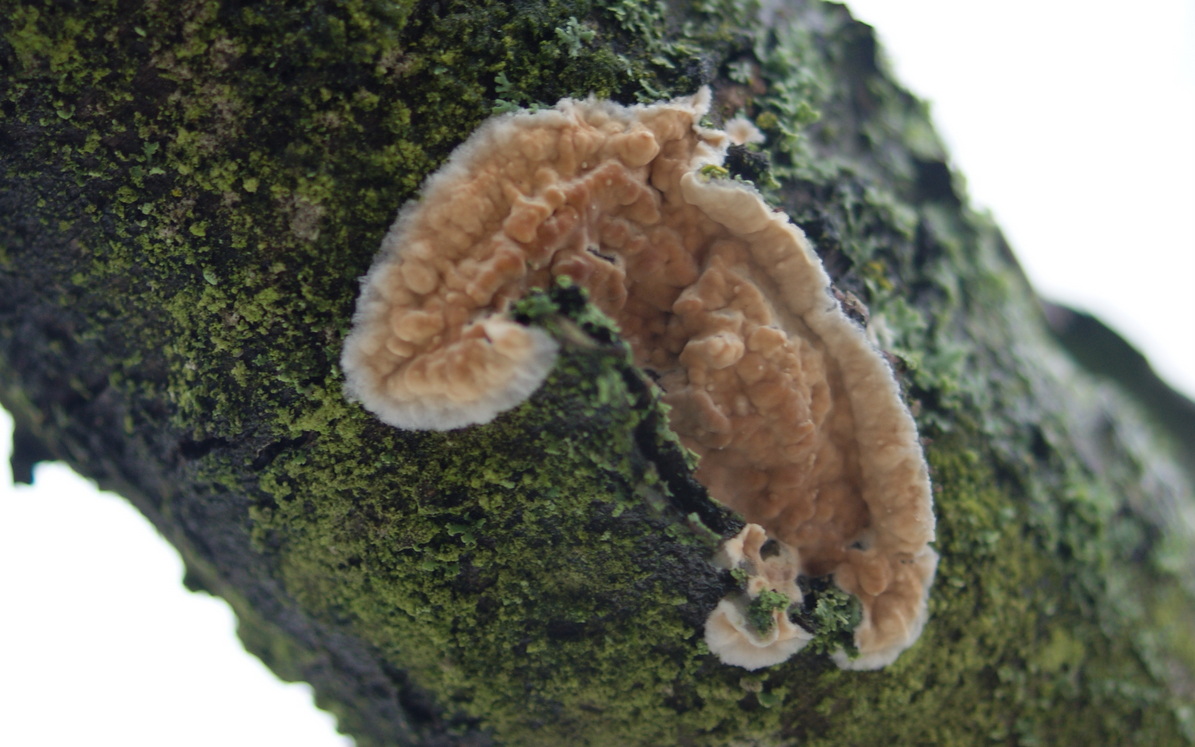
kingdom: Fungi
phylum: Basidiomycota
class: Agaricomycetes
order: Agaricales
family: Physalacriaceae
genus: Cylindrobasidium
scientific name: Cylindrobasidium evolvens
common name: sprækkehinde
